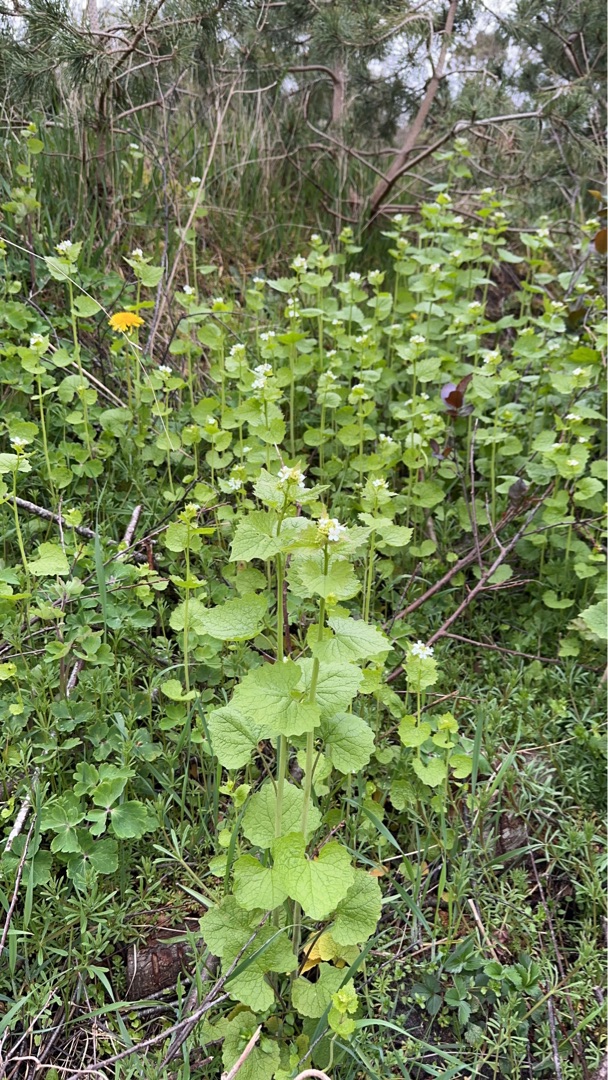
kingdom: Plantae
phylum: Tracheophyta
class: Magnoliopsida
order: Brassicales
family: Brassicaceae
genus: Alliaria
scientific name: Alliaria petiolata
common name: Løgkarse
